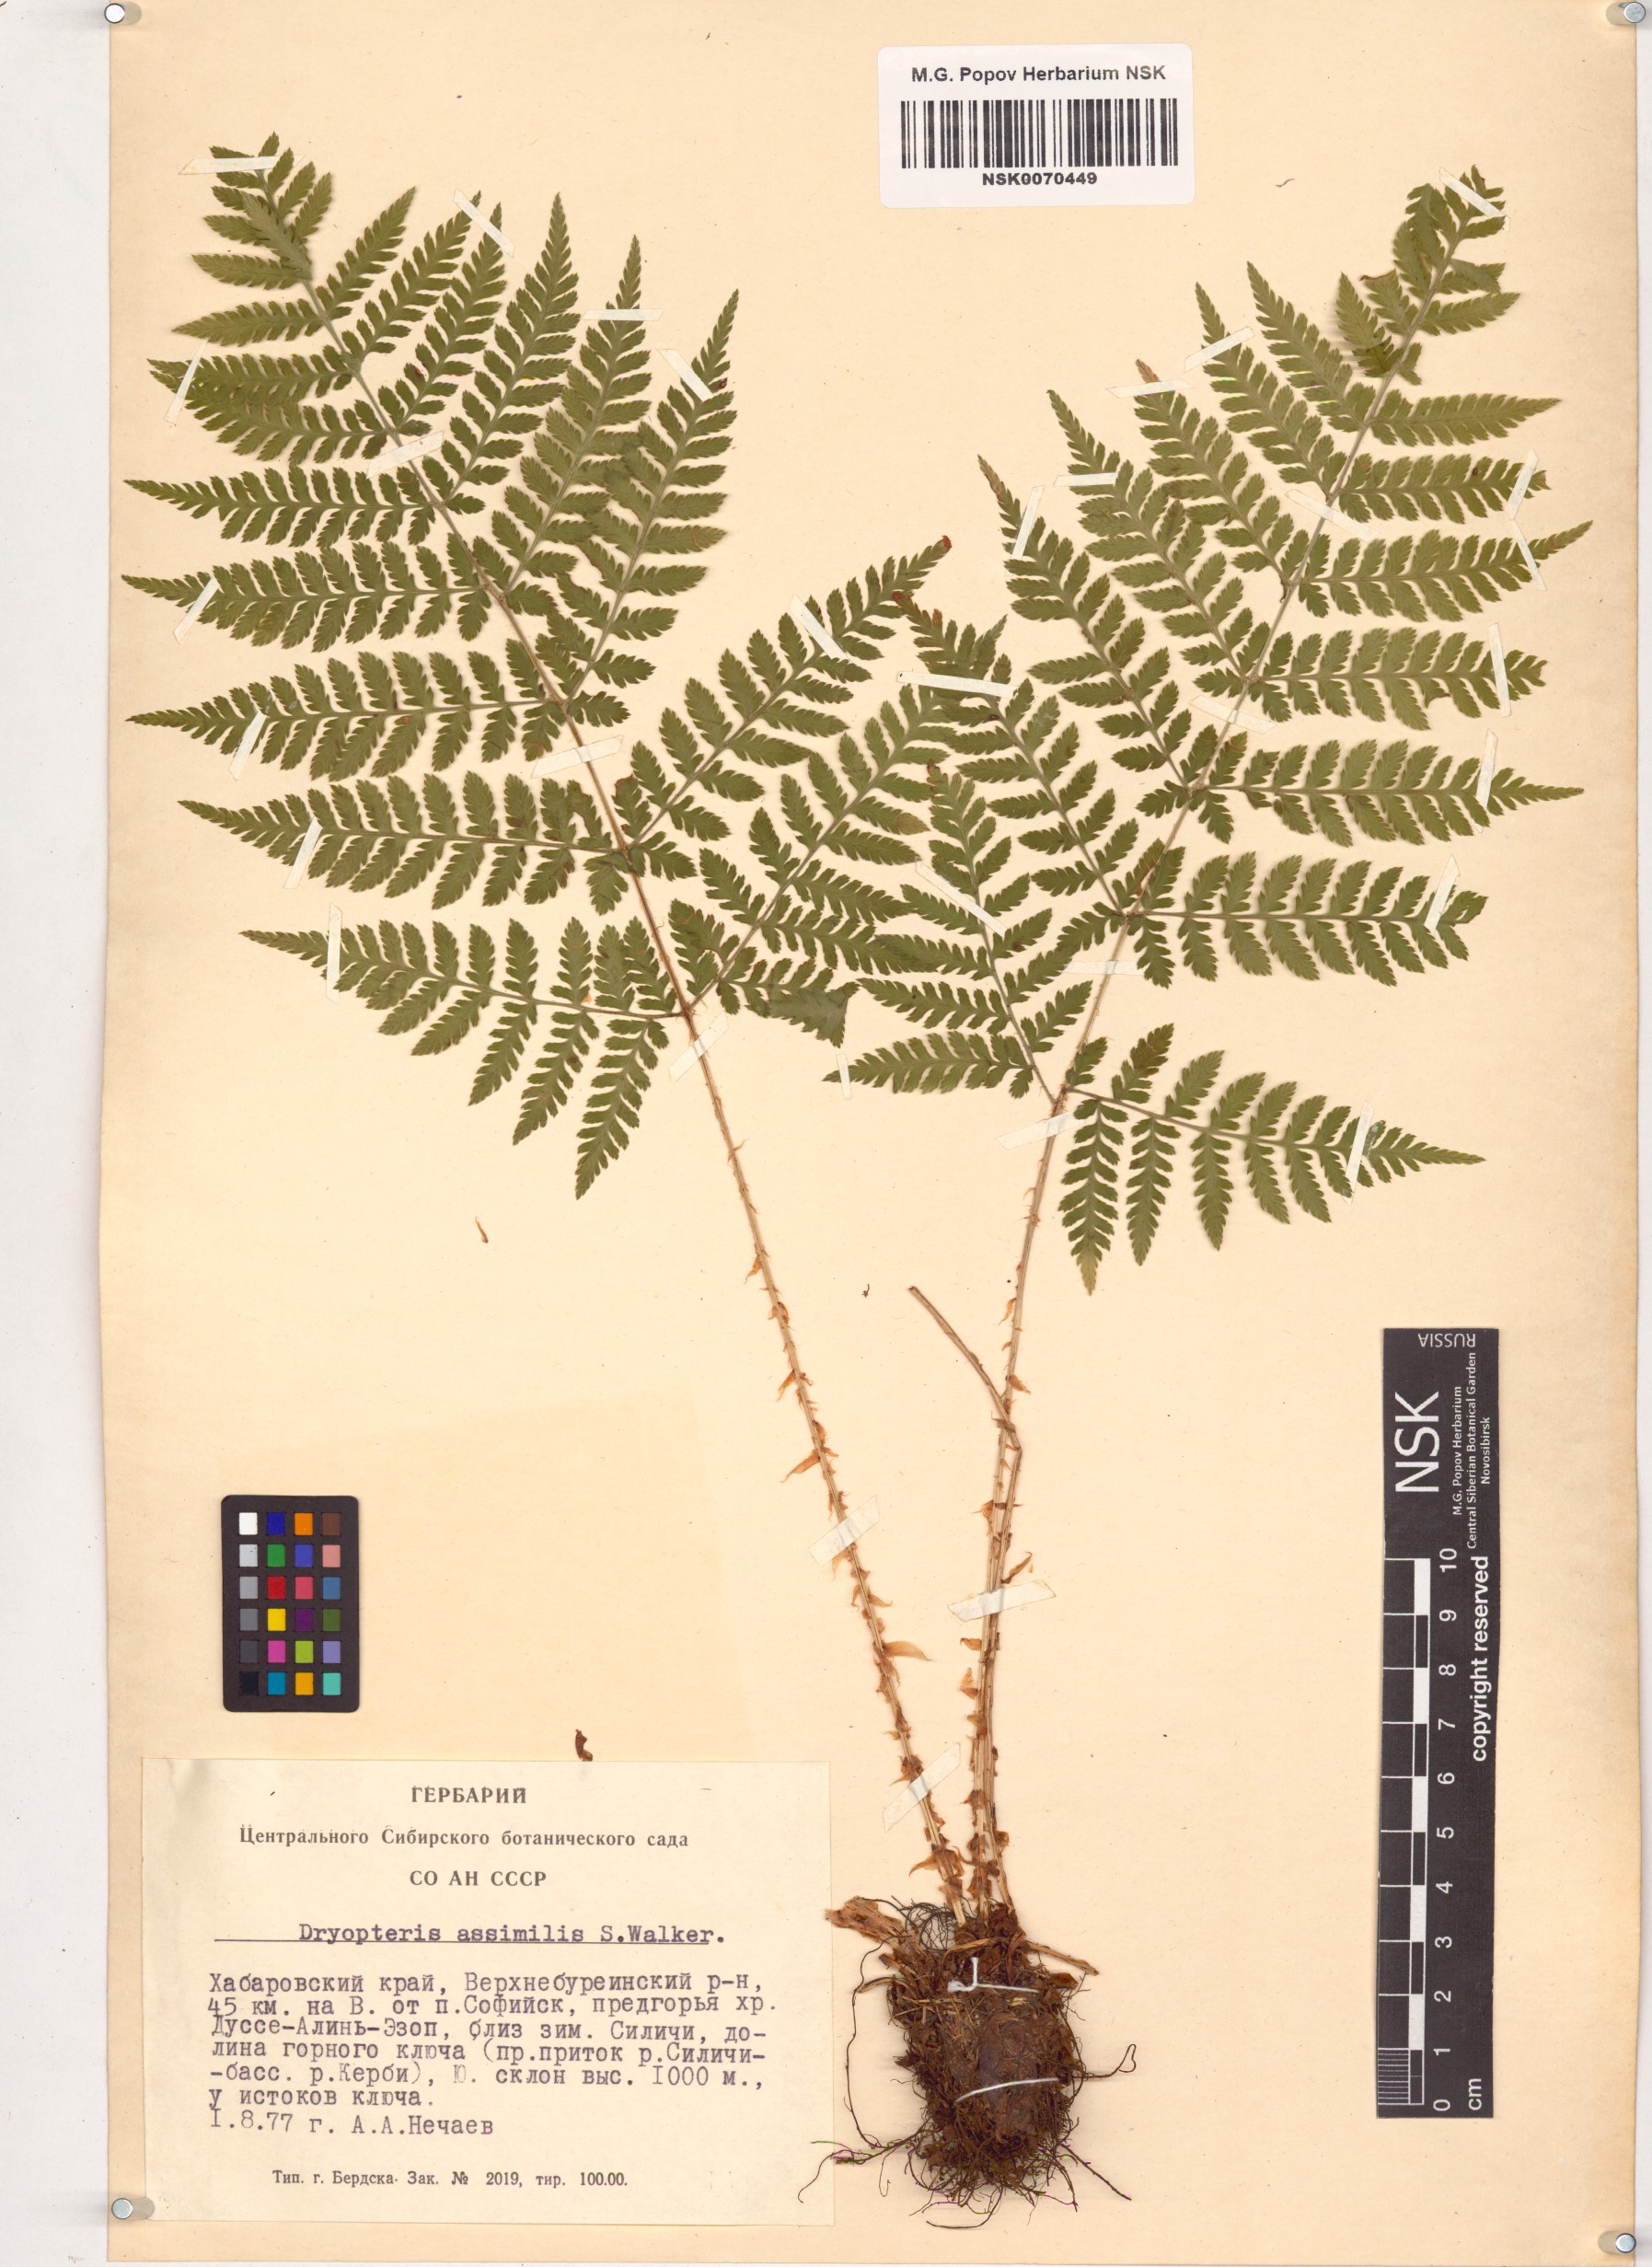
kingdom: Plantae
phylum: Tracheophyta
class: Polypodiopsida
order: Polypodiales
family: Dryopteridaceae
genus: Dryopteris
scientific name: Dryopteris expansa
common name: Northern buckler fern
